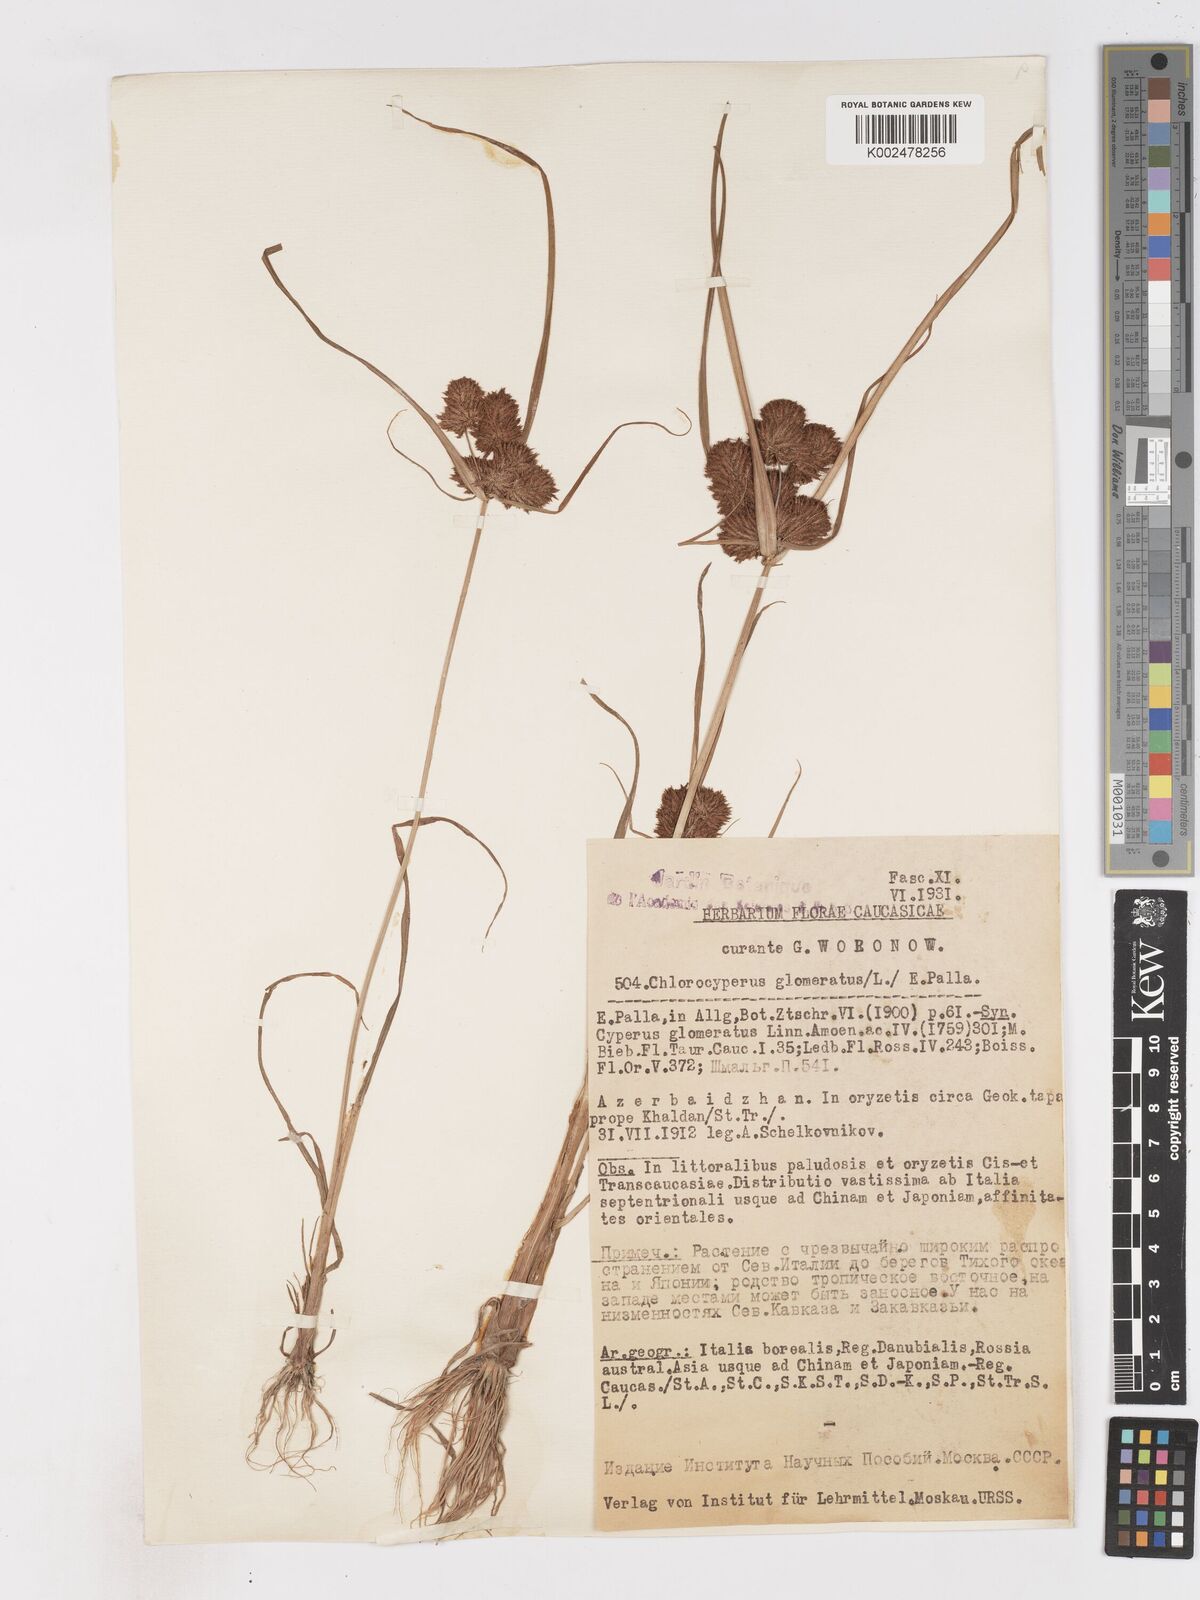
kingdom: Plantae
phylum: Tracheophyta
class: Liliopsida
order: Poales
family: Cyperaceae
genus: Cyperus
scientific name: Cyperus glomeratus
